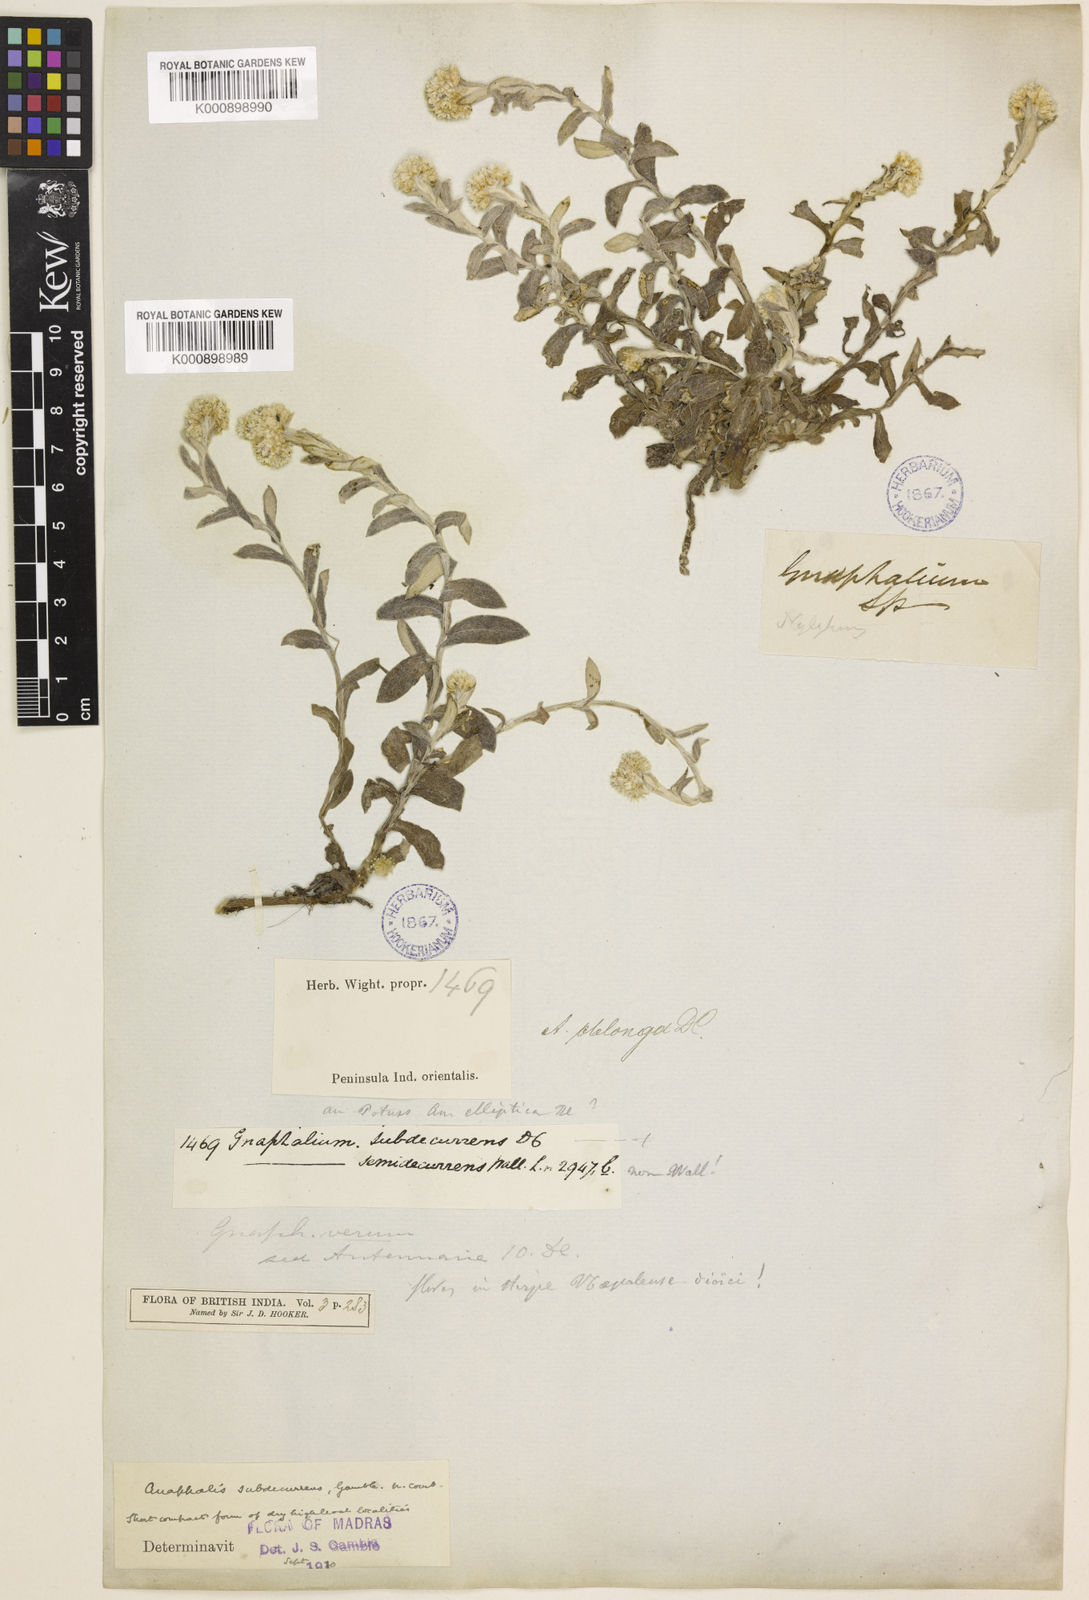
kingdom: Plantae
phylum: Tracheophyta
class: Magnoliopsida
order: Asterales
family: Asteraceae
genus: Anaphalis
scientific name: Anaphalis subdecurrens
